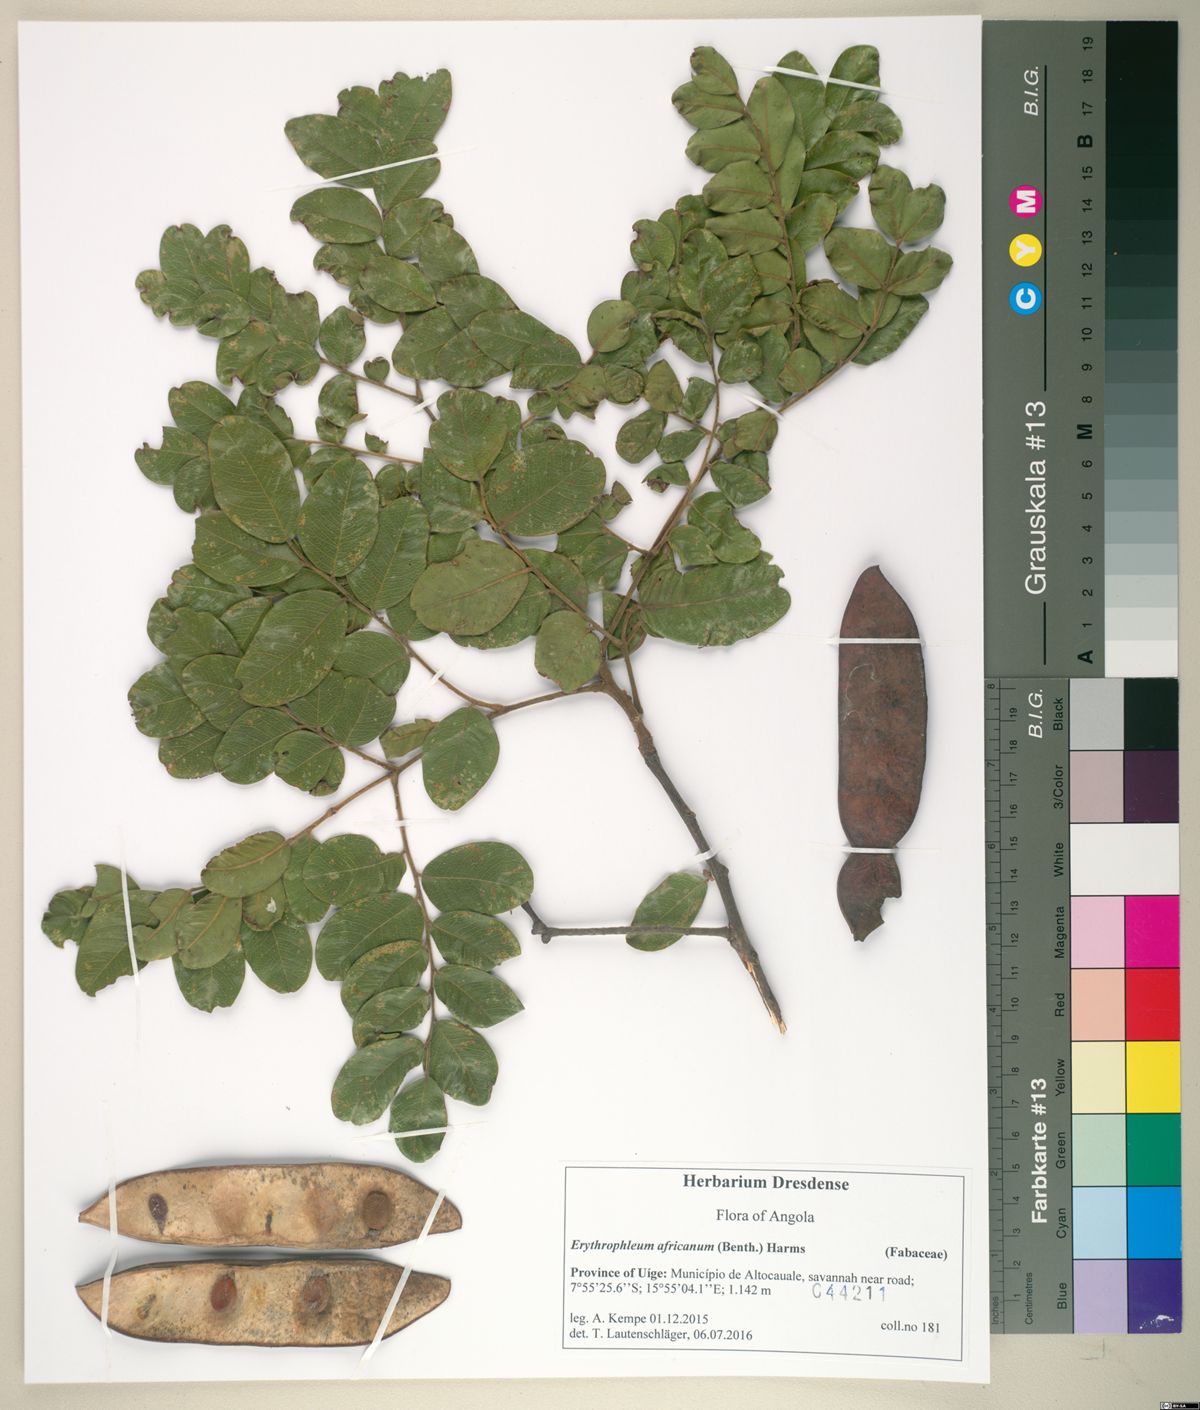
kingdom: Plantae
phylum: Tracheophyta
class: Magnoliopsida
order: Fabales
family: Fabaceae
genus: Erythrophleum
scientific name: Erythrophleum africanum
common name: African blackwood
